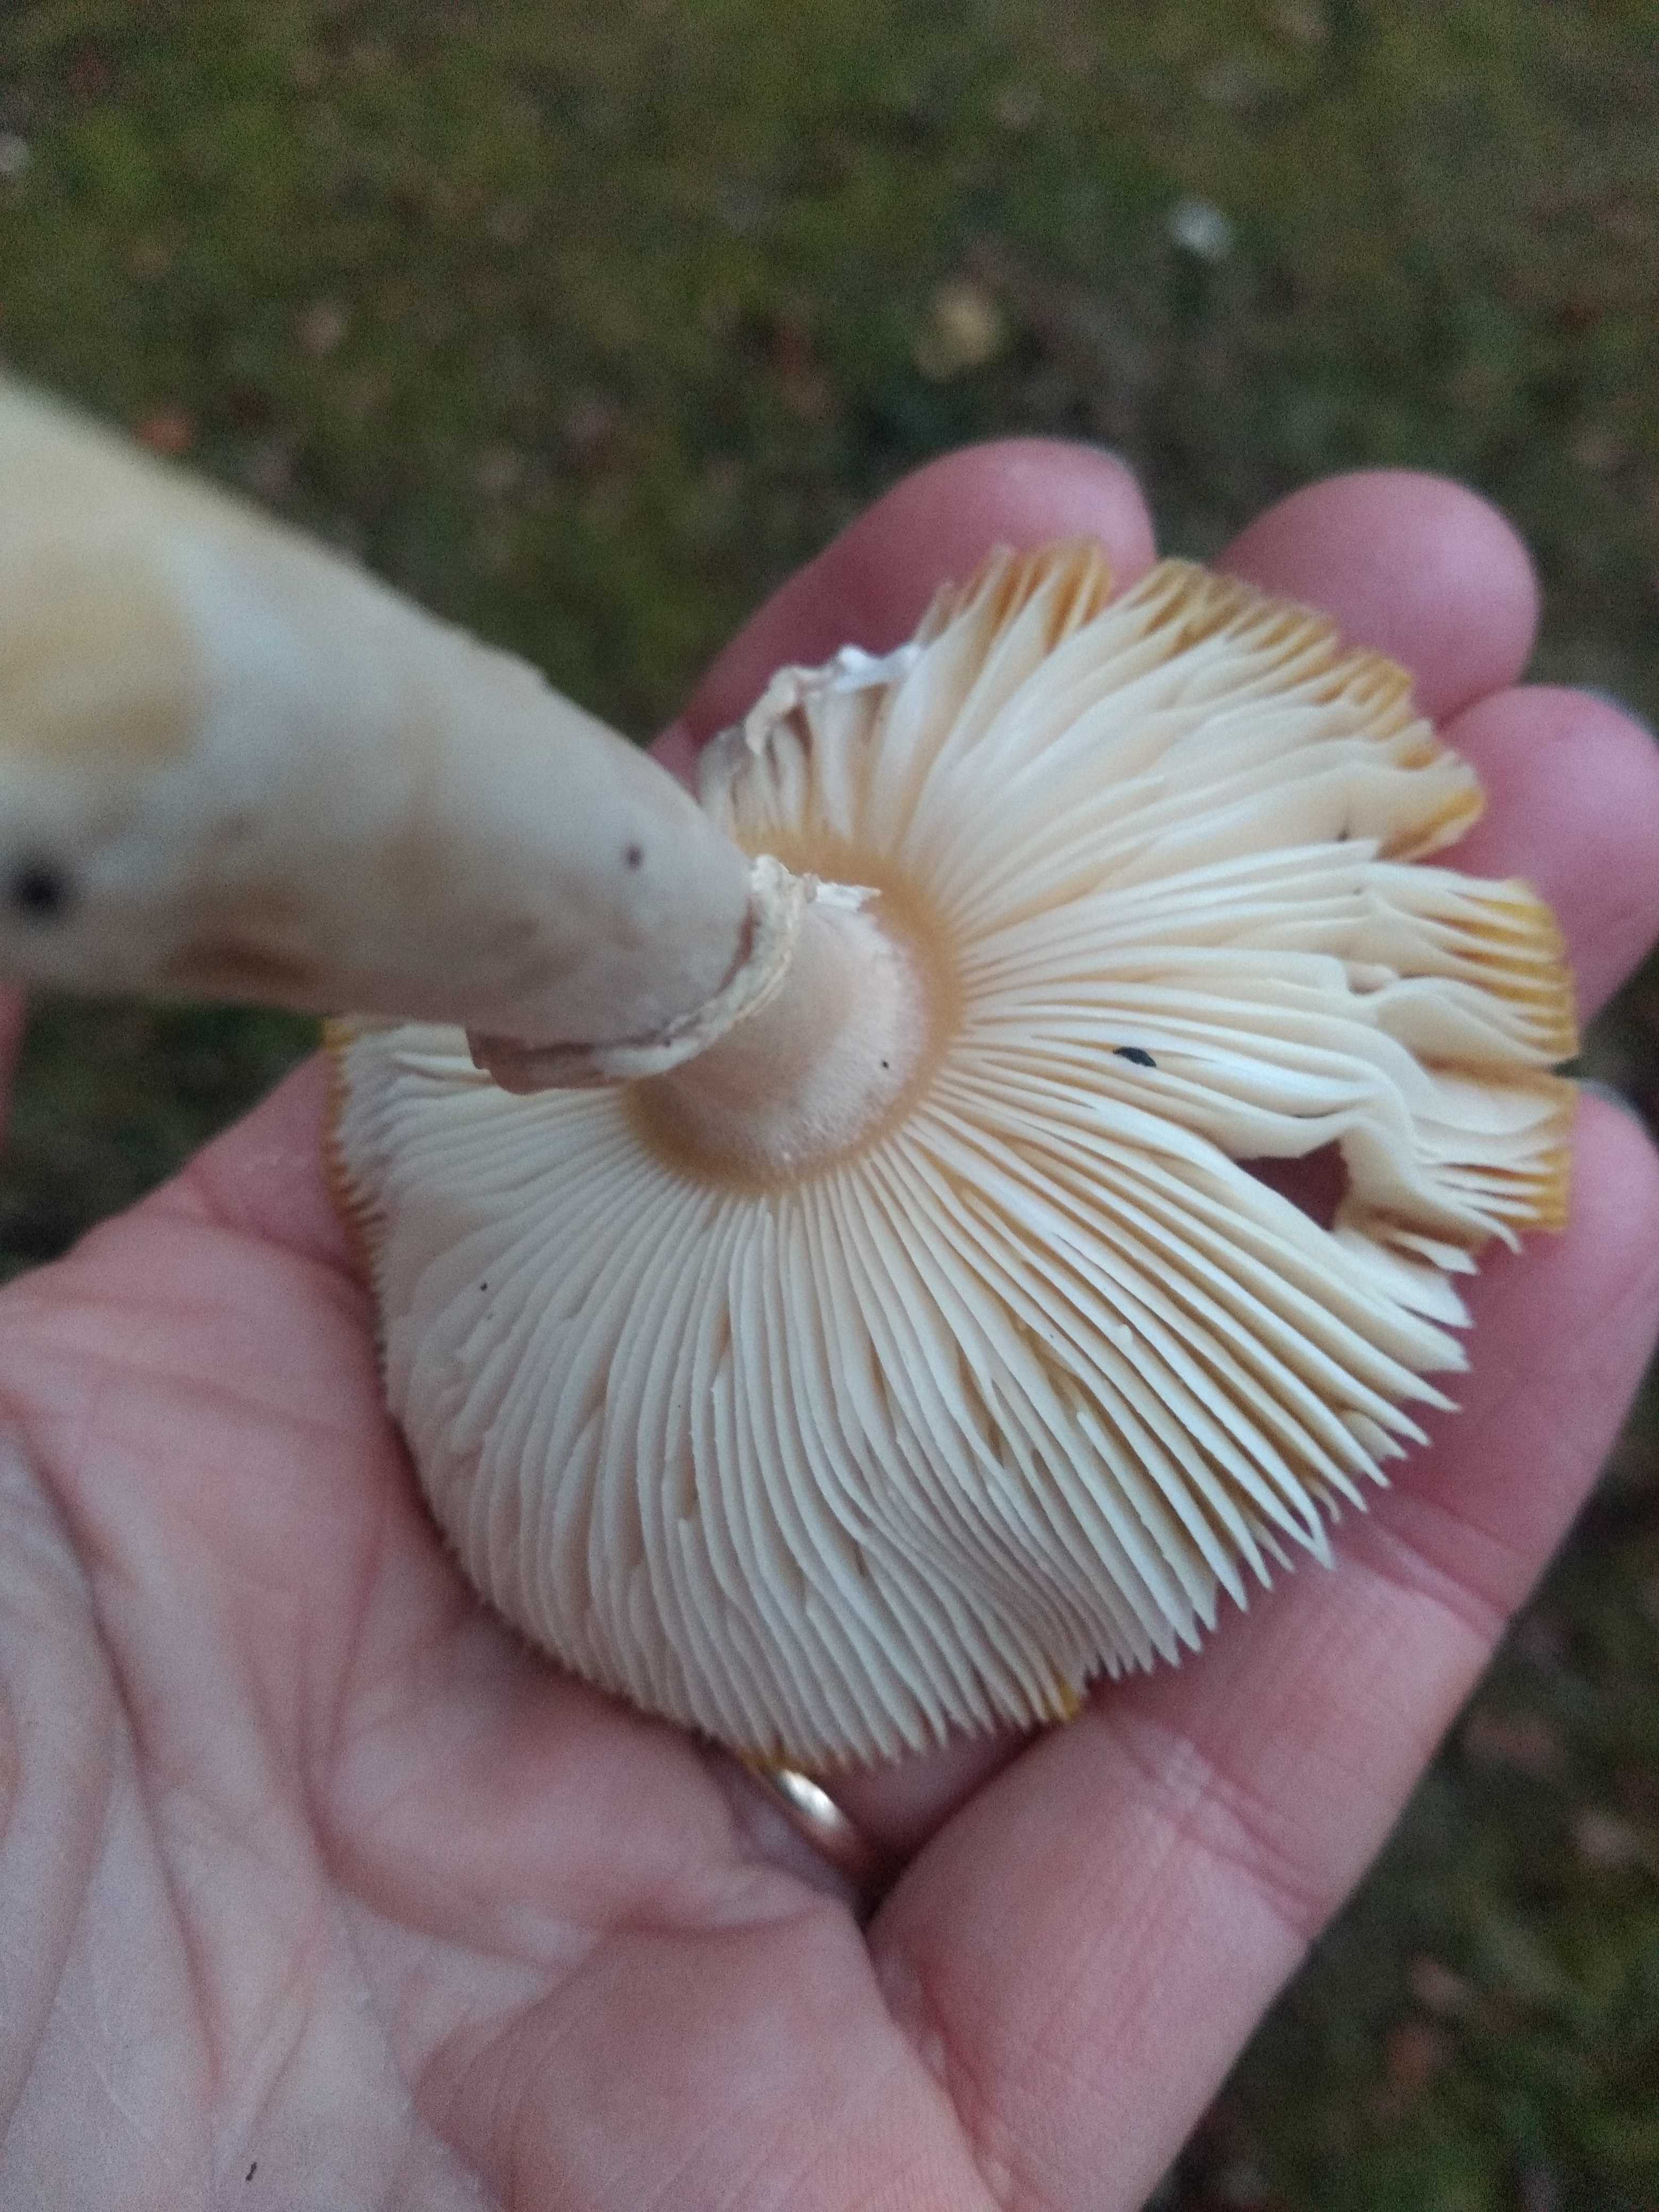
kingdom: Fungi
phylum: Basidiomycota
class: Agaricomycetes
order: Agaricales
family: Amanitaceae
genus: Amanita
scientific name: Amanita muscaria
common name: rød fluesvamp
